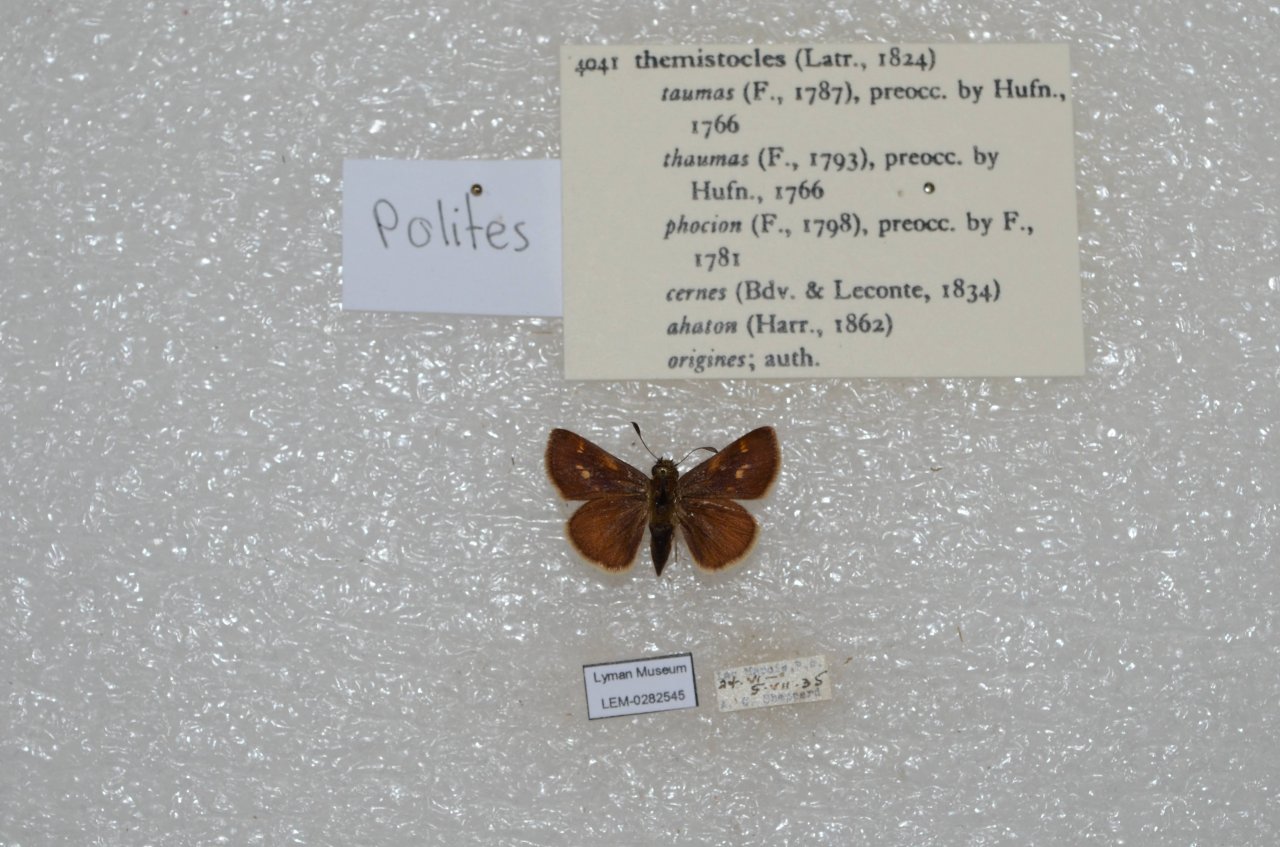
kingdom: Animalia
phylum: Arthropoda
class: Insecta
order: Lepidoptera
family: Hesperiidae
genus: Polites
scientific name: Polites themistocles
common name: Tawny-edged Skipper
